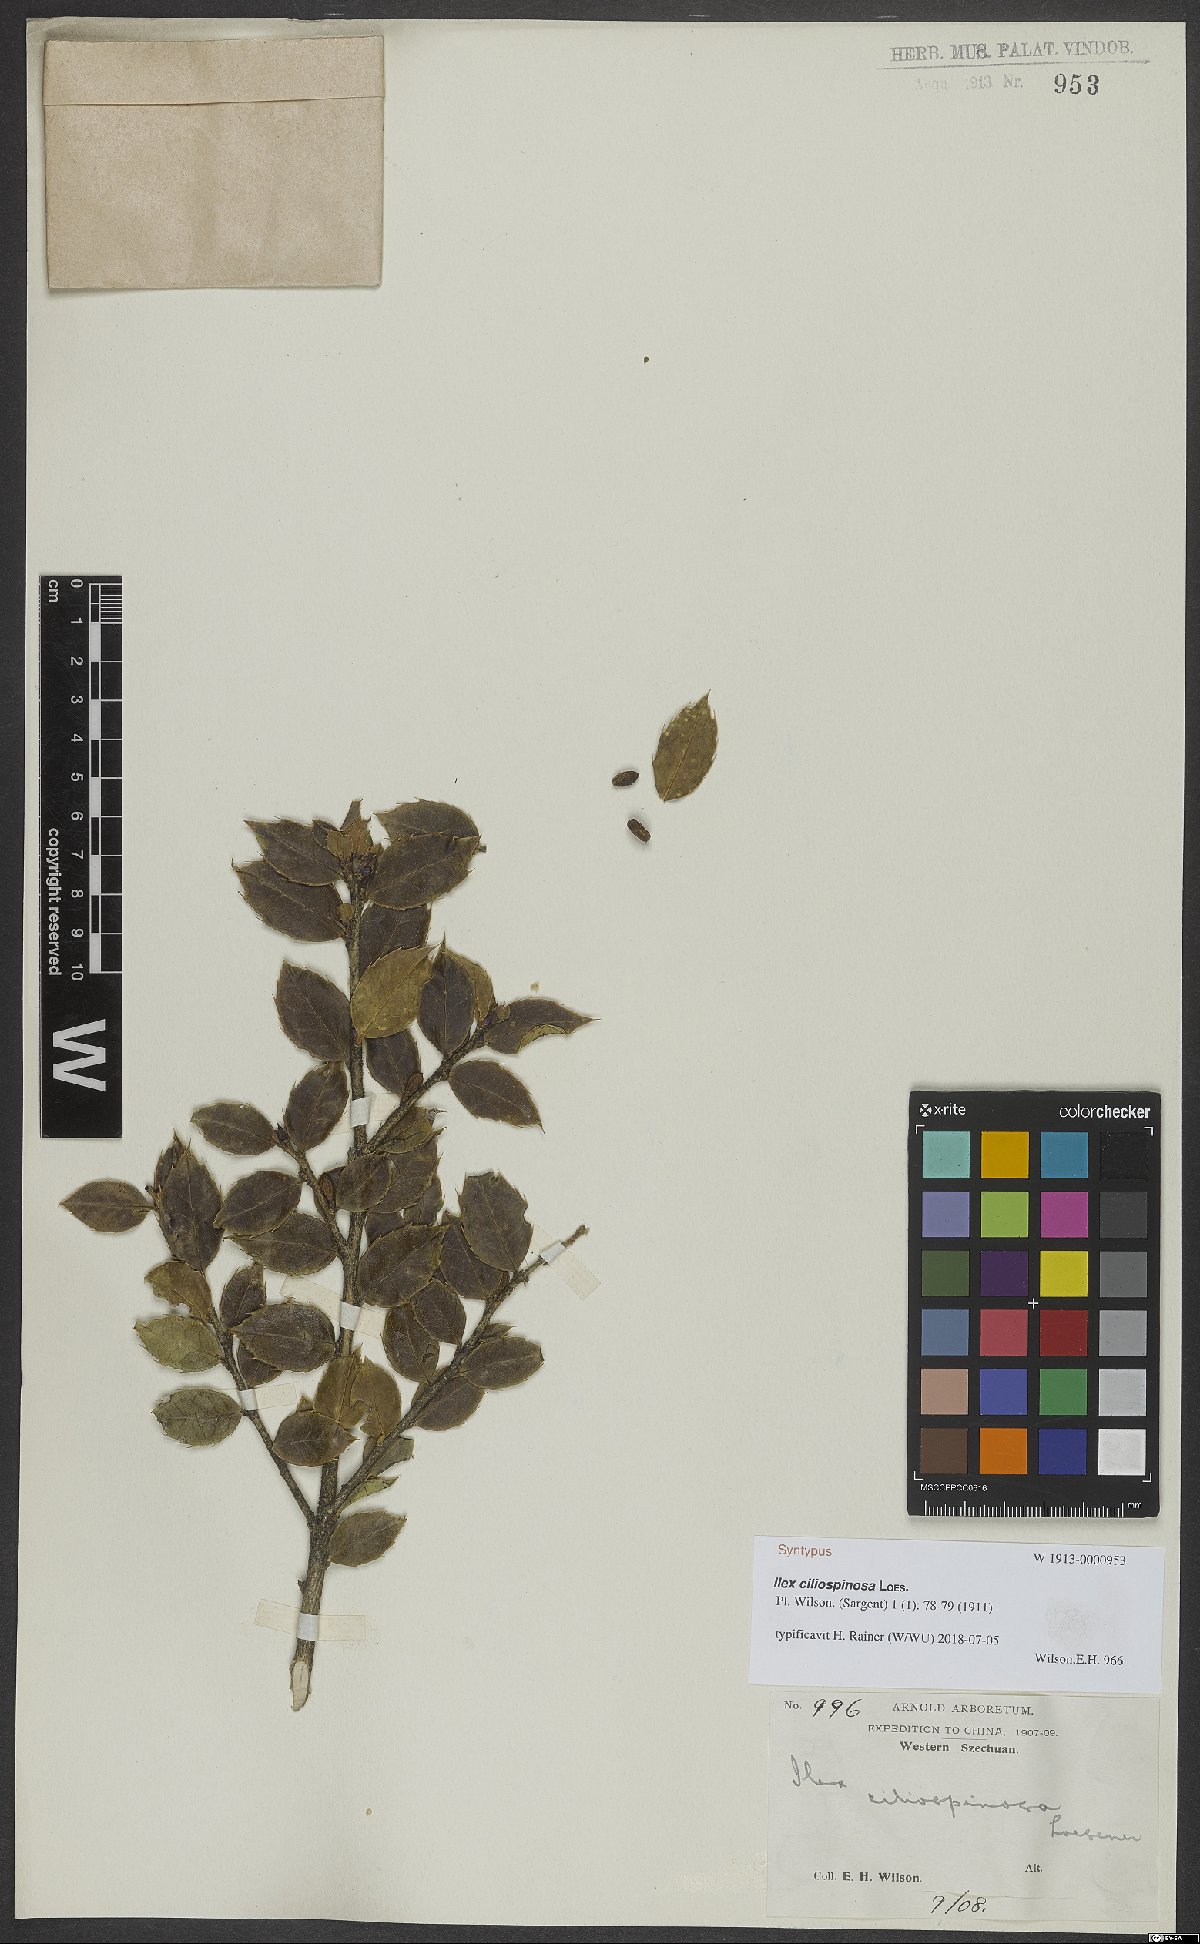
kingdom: Plantae
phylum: Tracheophyta
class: Magnoliopsida
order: Aquifoliales
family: Aquifoliaceae
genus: Ilex
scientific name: Ilex bioritsensis
